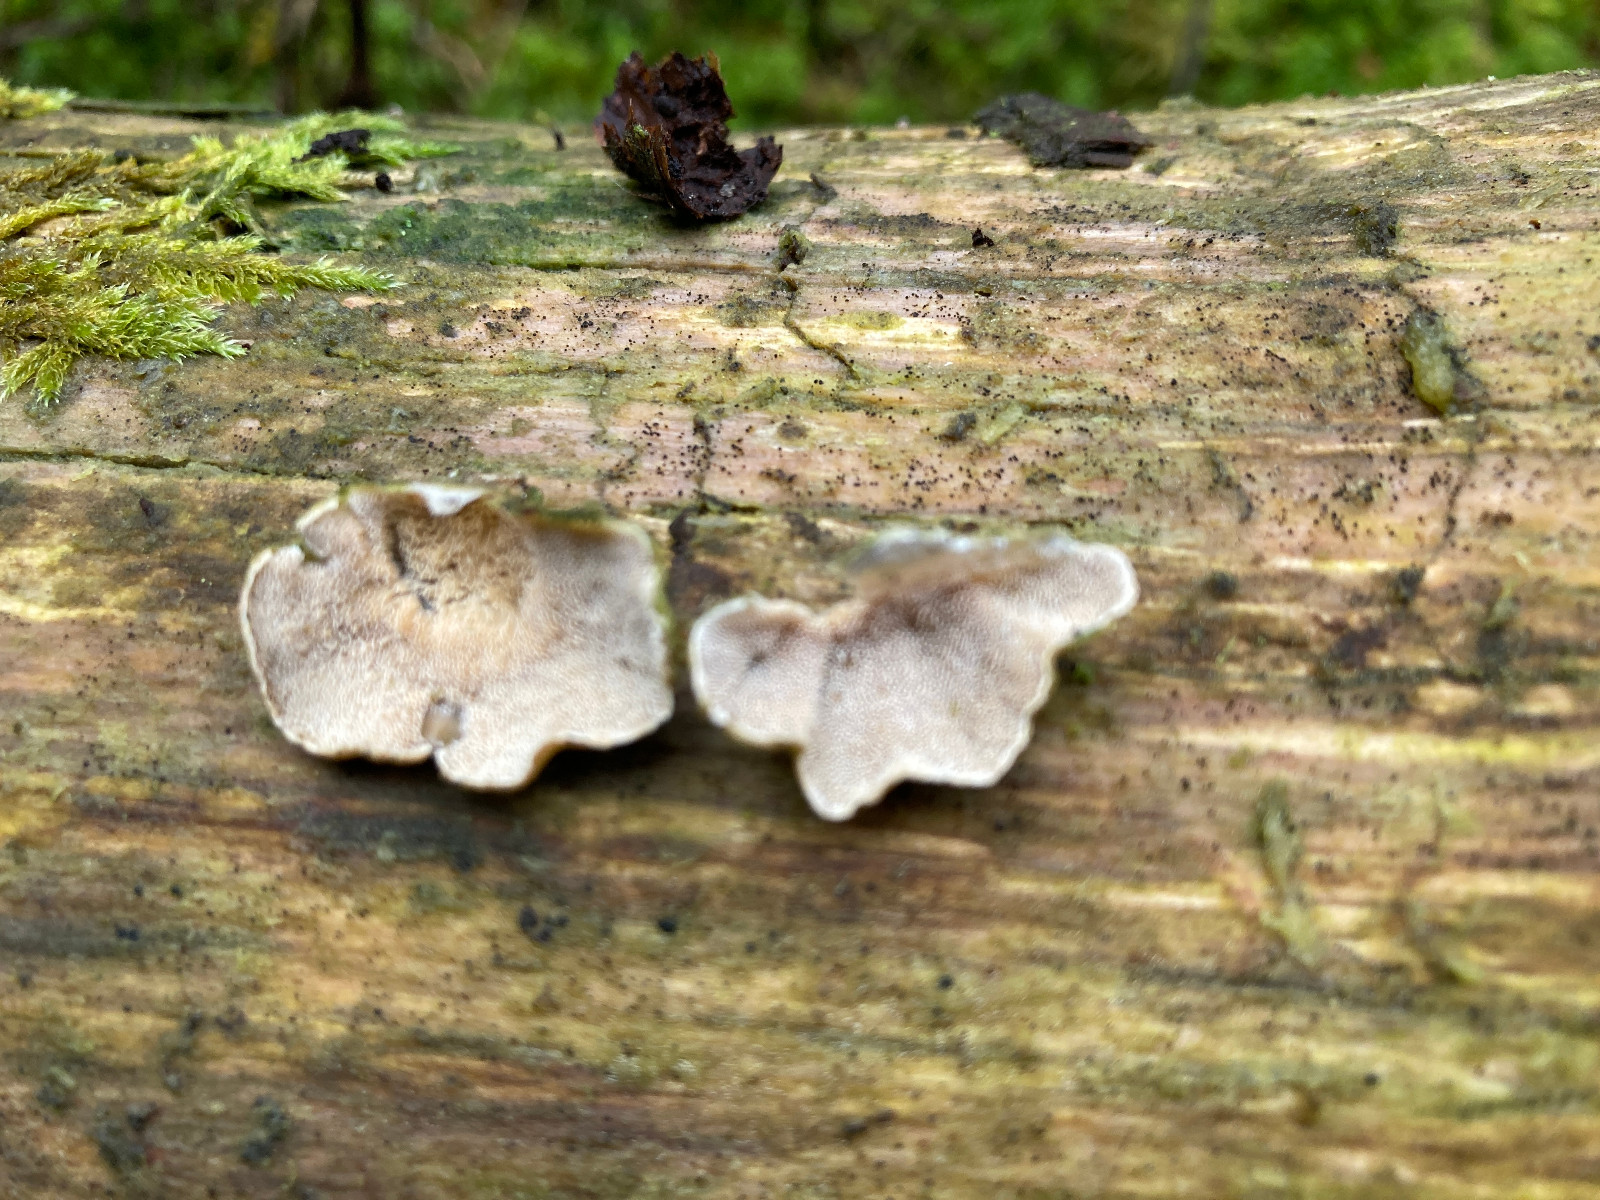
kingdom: Fungi
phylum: Basidiomycota
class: Agaricomycetes
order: Polyporales
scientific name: Polyporales
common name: poresvampordenen
